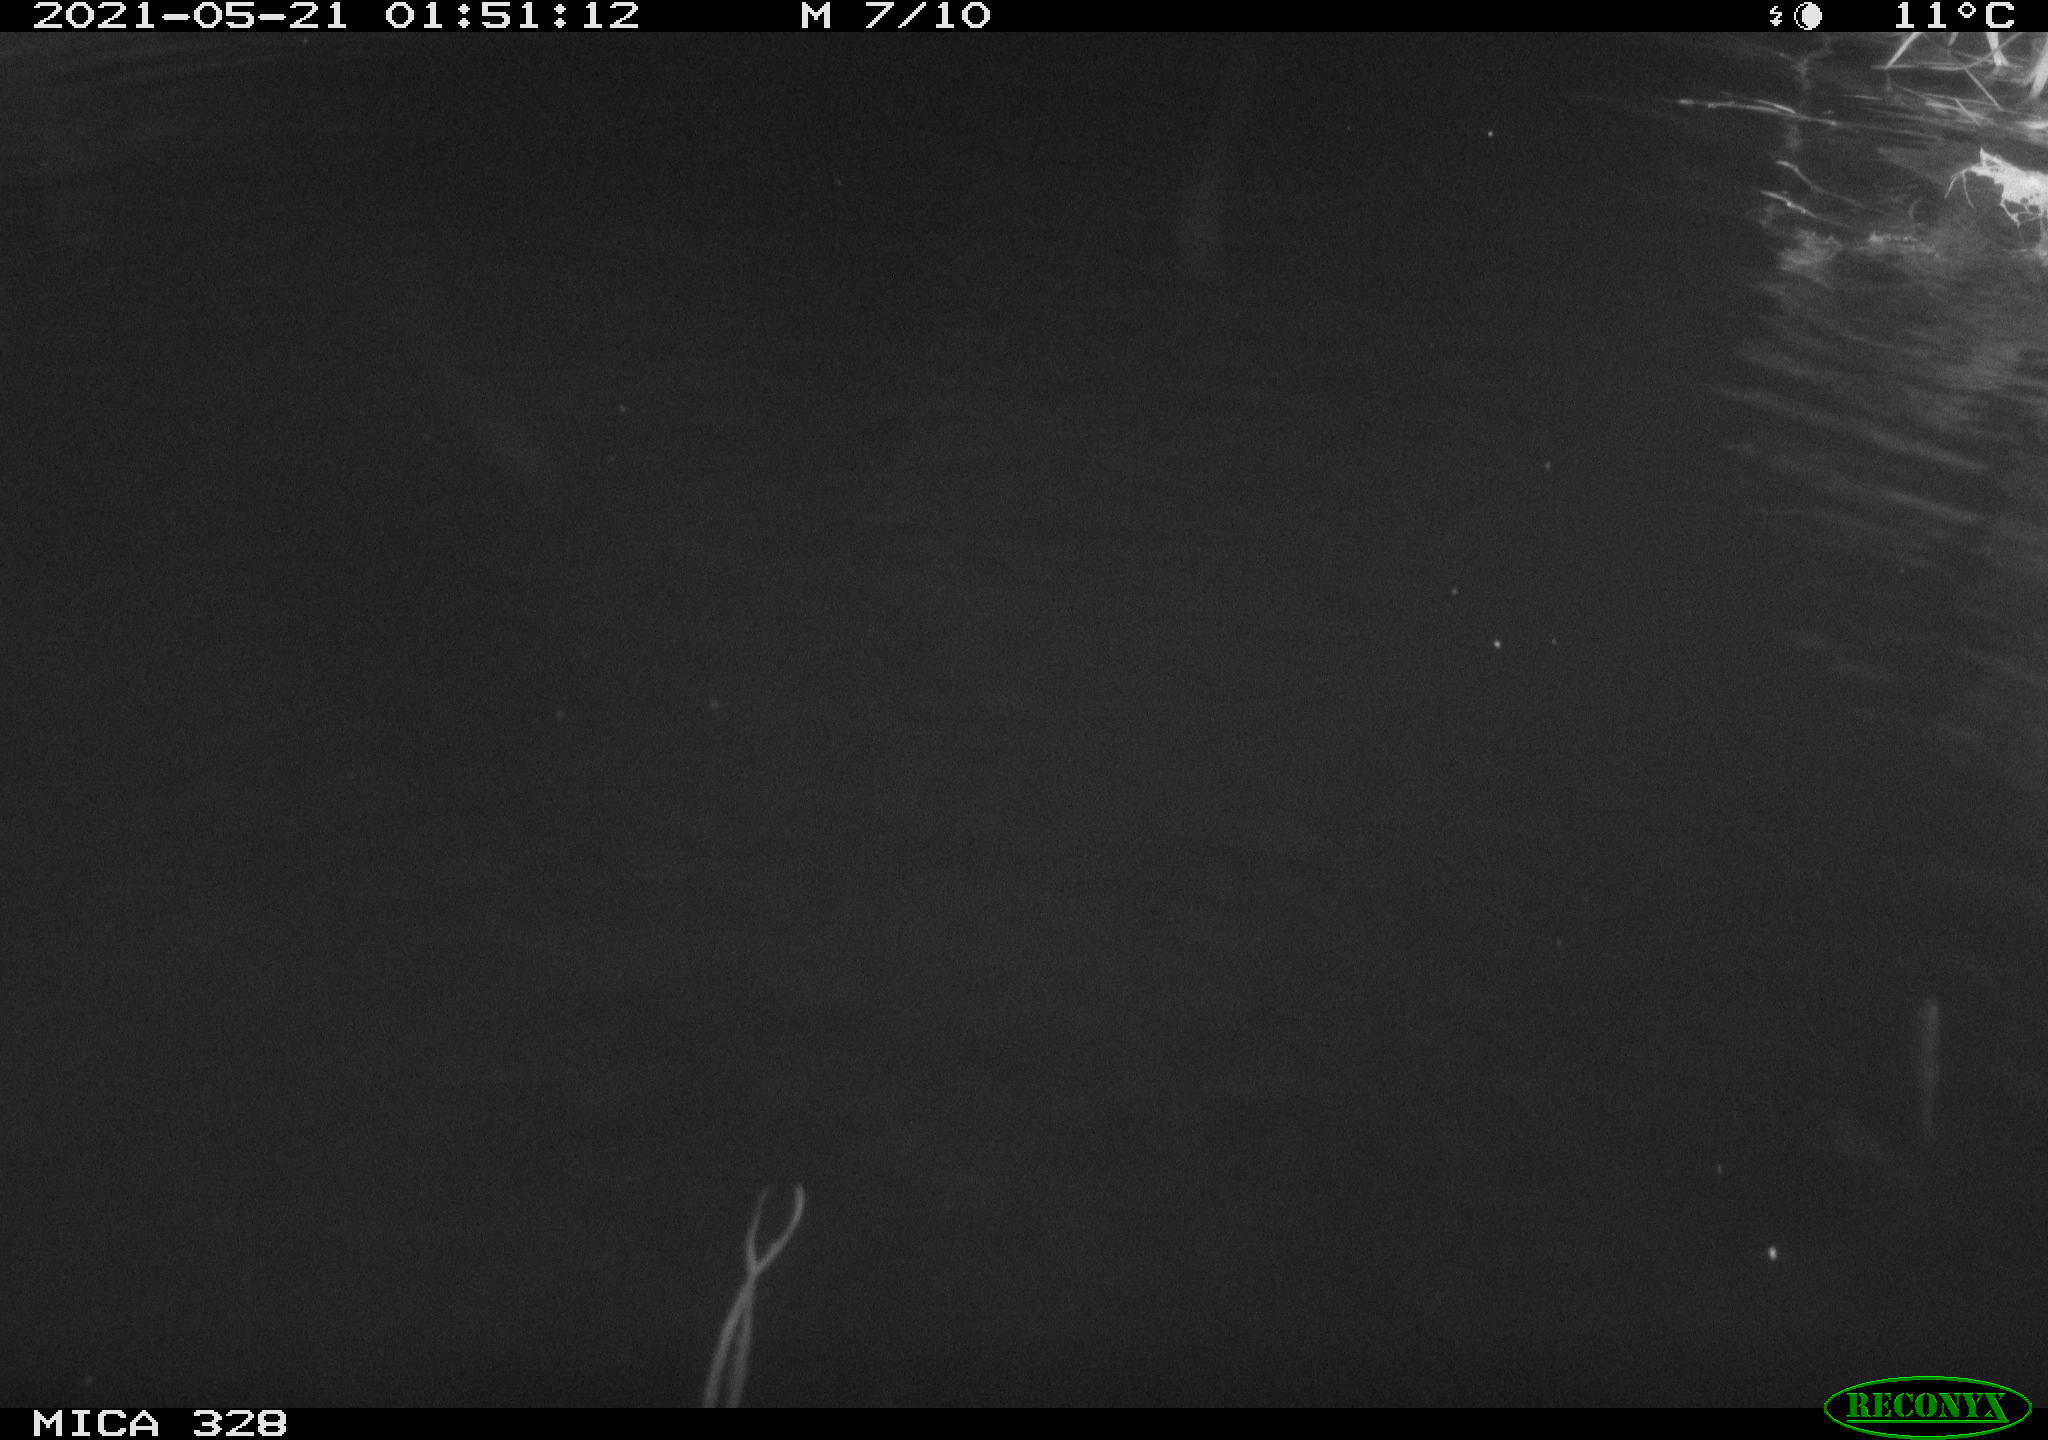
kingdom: Animalia
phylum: Chordata
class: Aves
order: Anseriformes
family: Anatidae
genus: Anas
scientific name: Anas platyrhynchos
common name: Mallard
